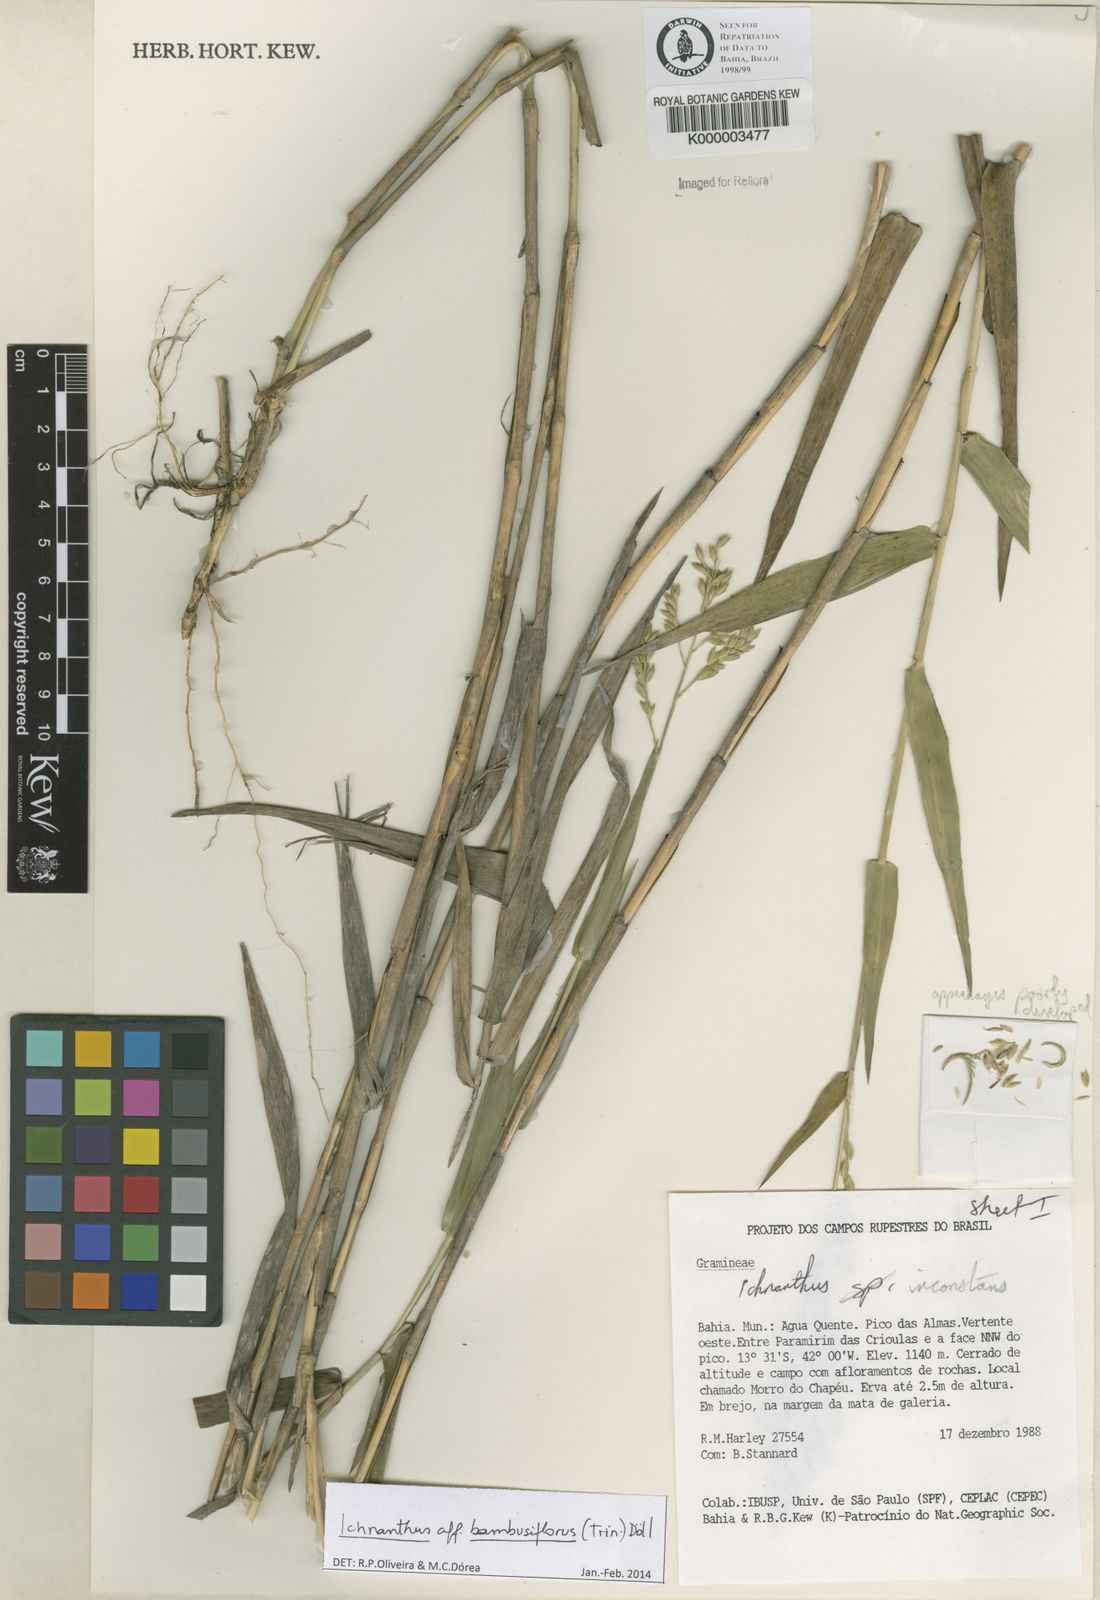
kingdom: Plantae
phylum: Tracheophyta
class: Liliopsida
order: Poales
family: Poaceae
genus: Ichnanthus
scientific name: Ichnanthus
